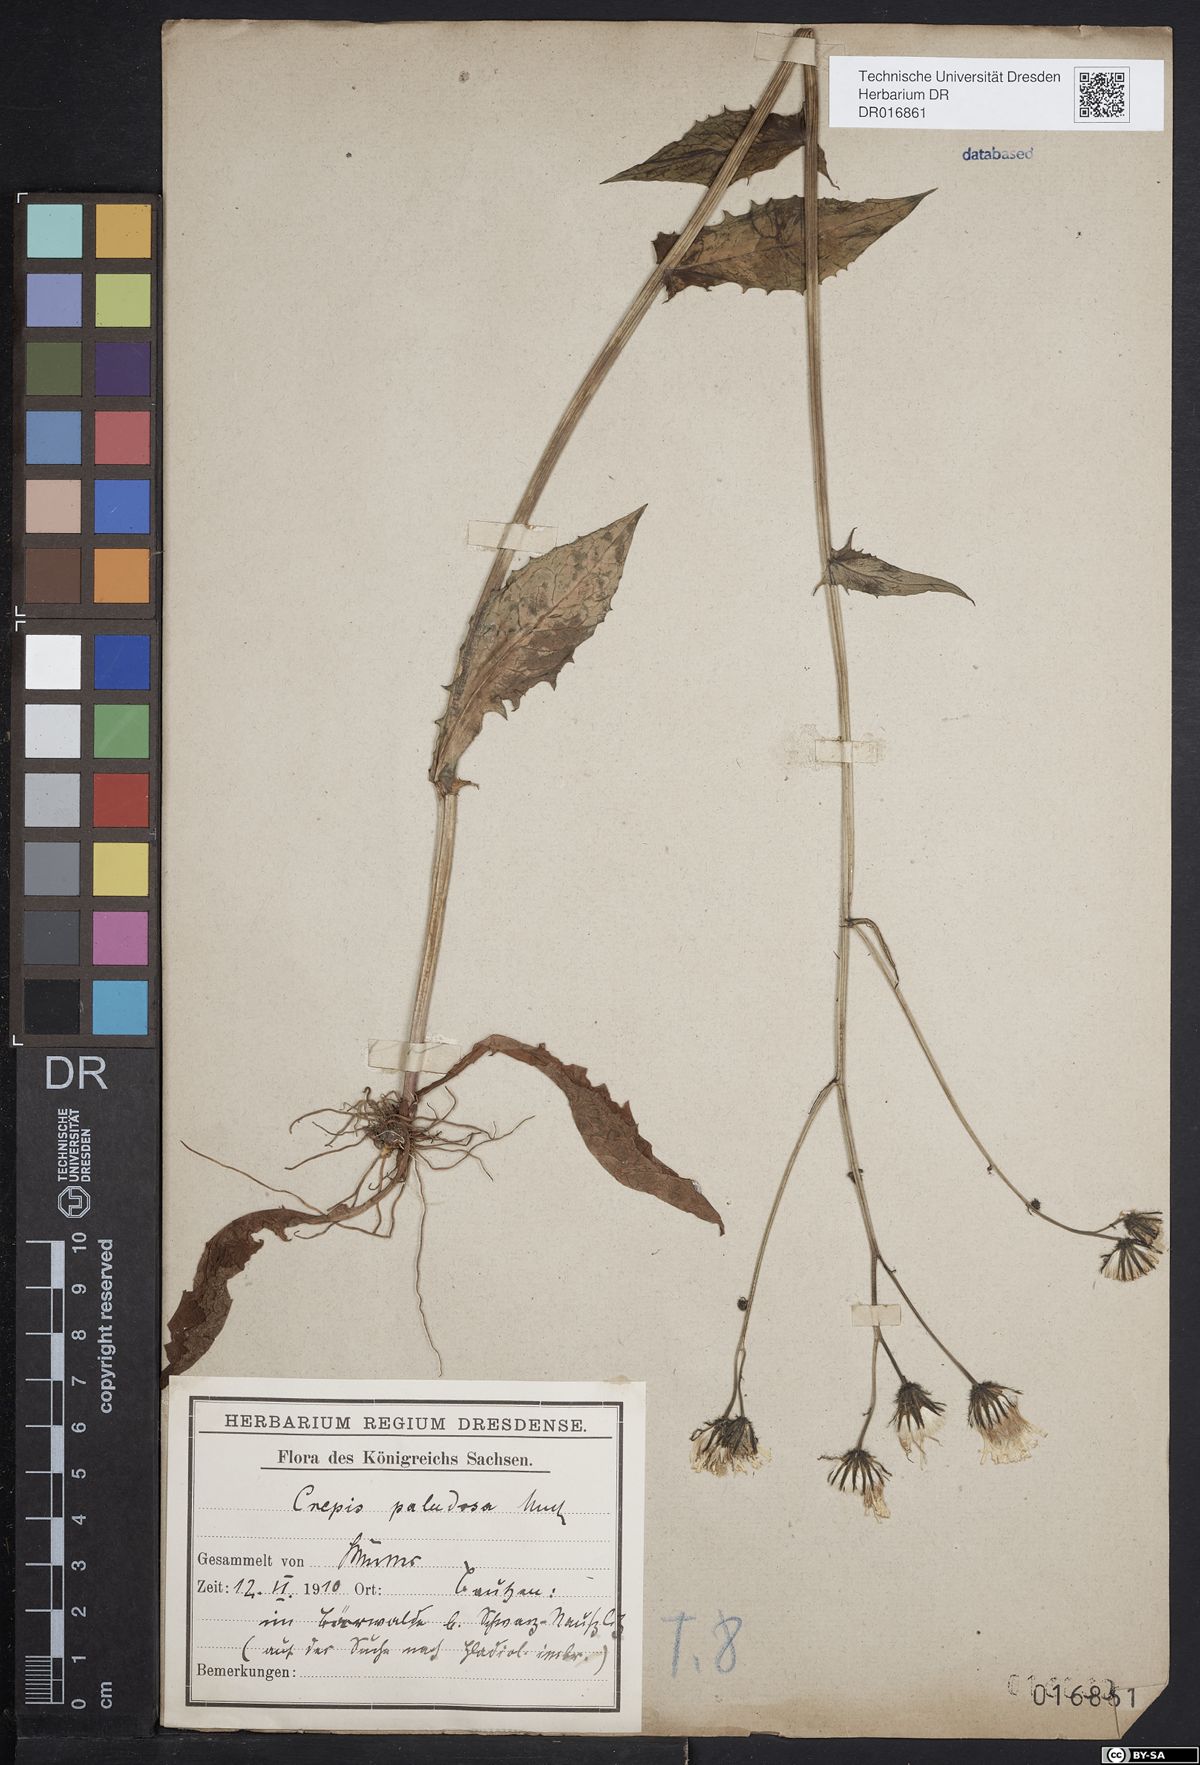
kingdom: Plantae
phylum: Tracheophyta
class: Magnoliopsida
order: Asterales
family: Asteraceae
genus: Crepis
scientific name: Crepis paludosa
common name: Marsh hawk's-beard
